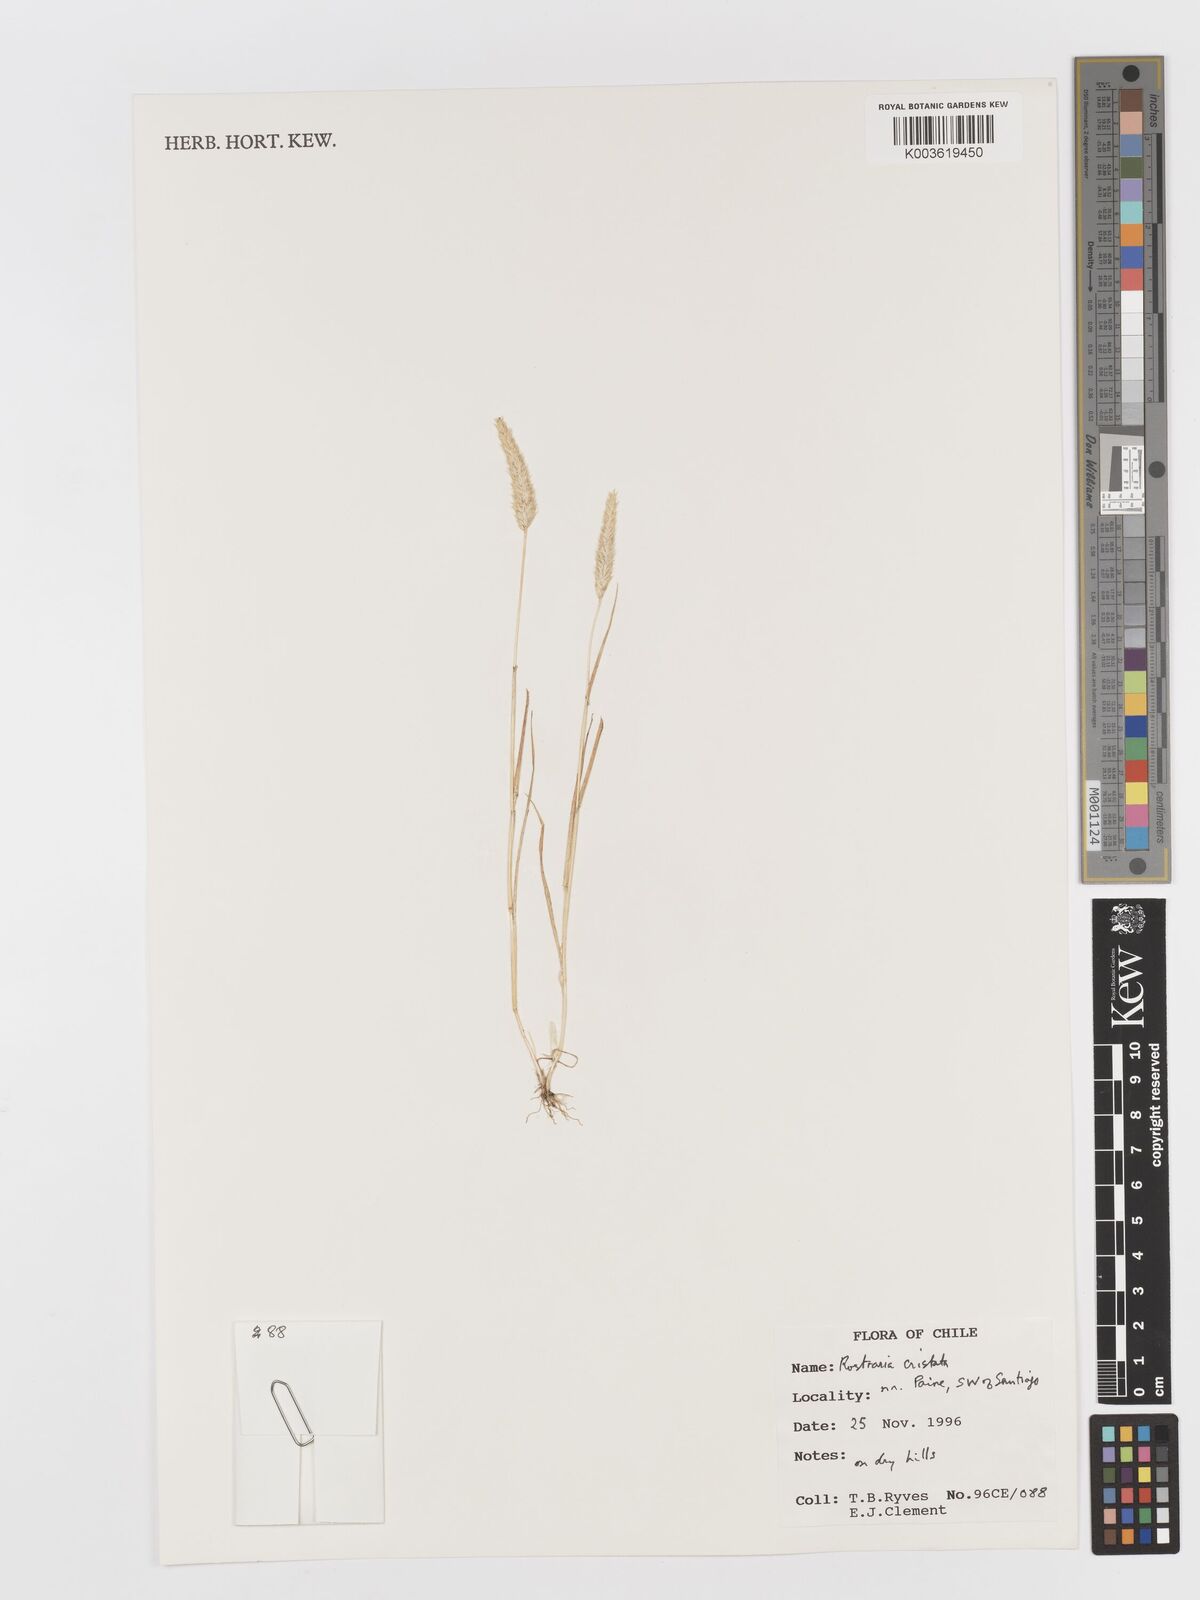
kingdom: Plantae
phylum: Tracheophyta
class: Liliopsida
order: Poales
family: Poaceae
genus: Rostraria
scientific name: Rostraria cristata
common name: Mediterranean hair-grass
